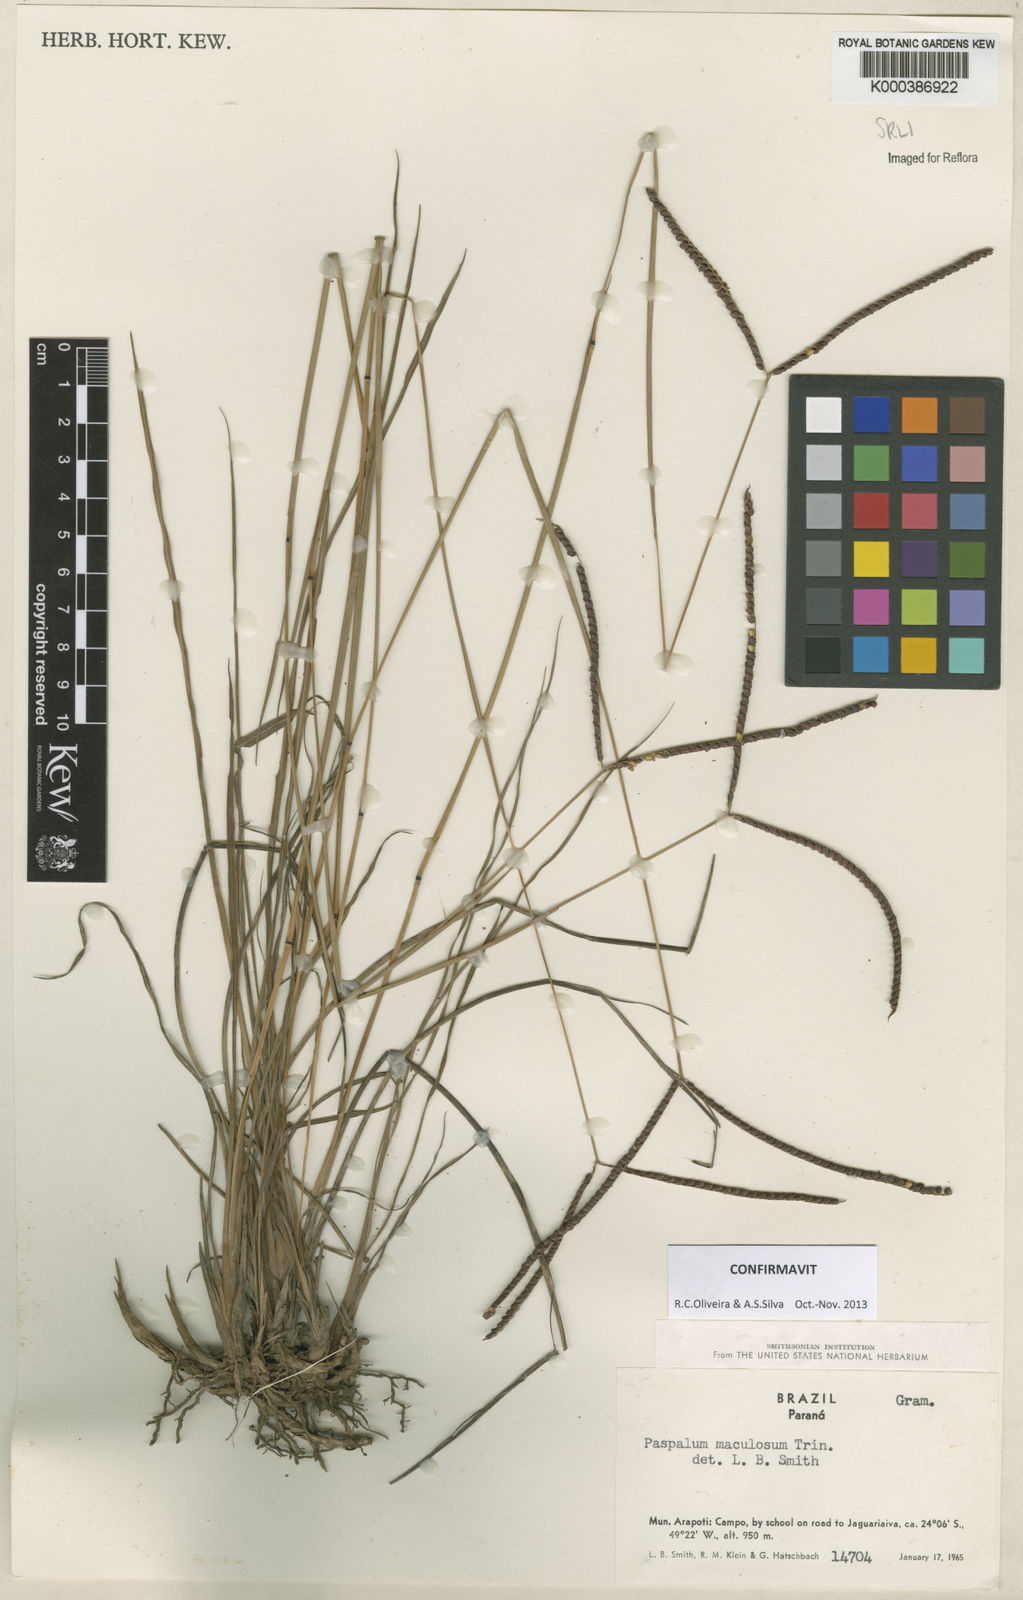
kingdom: Plantae
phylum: Tracheophyta
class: Liliopsida
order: Poales
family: Poaceae
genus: Paspalum
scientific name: Paspalum maculosum
